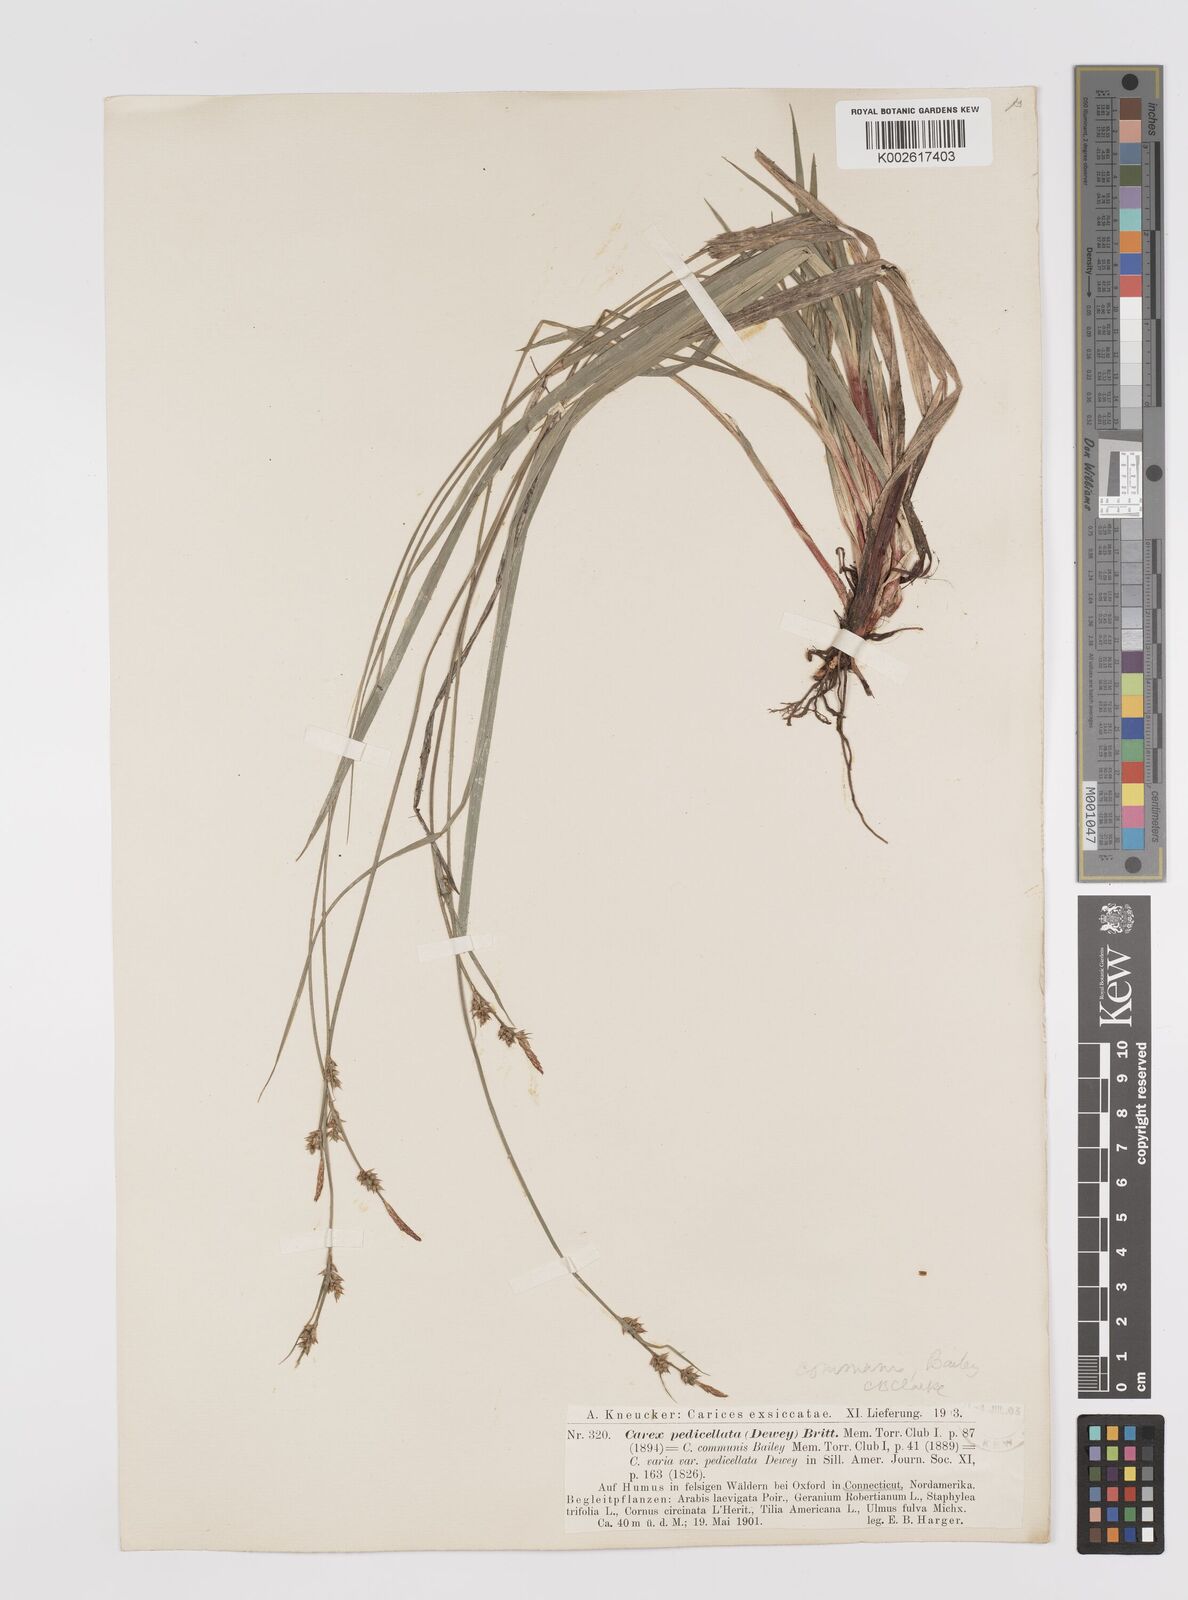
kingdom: Plantae
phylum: Tracheophyta
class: Liliopsida
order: Poales
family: Cyperaceae
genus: Carex
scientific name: Carex communis
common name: Colonial oak sedge
